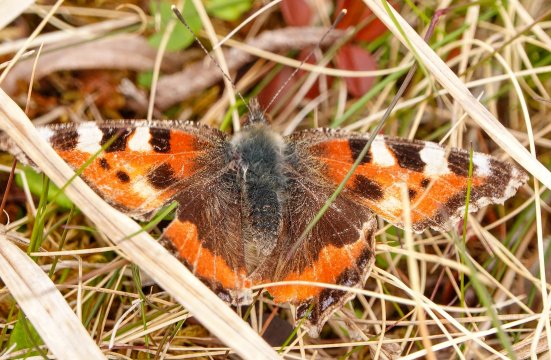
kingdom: Animalia
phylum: Arthropoda
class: Insecta
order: Lepidoptera
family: Nymphalidae
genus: Aglais
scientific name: Aglais urticae
